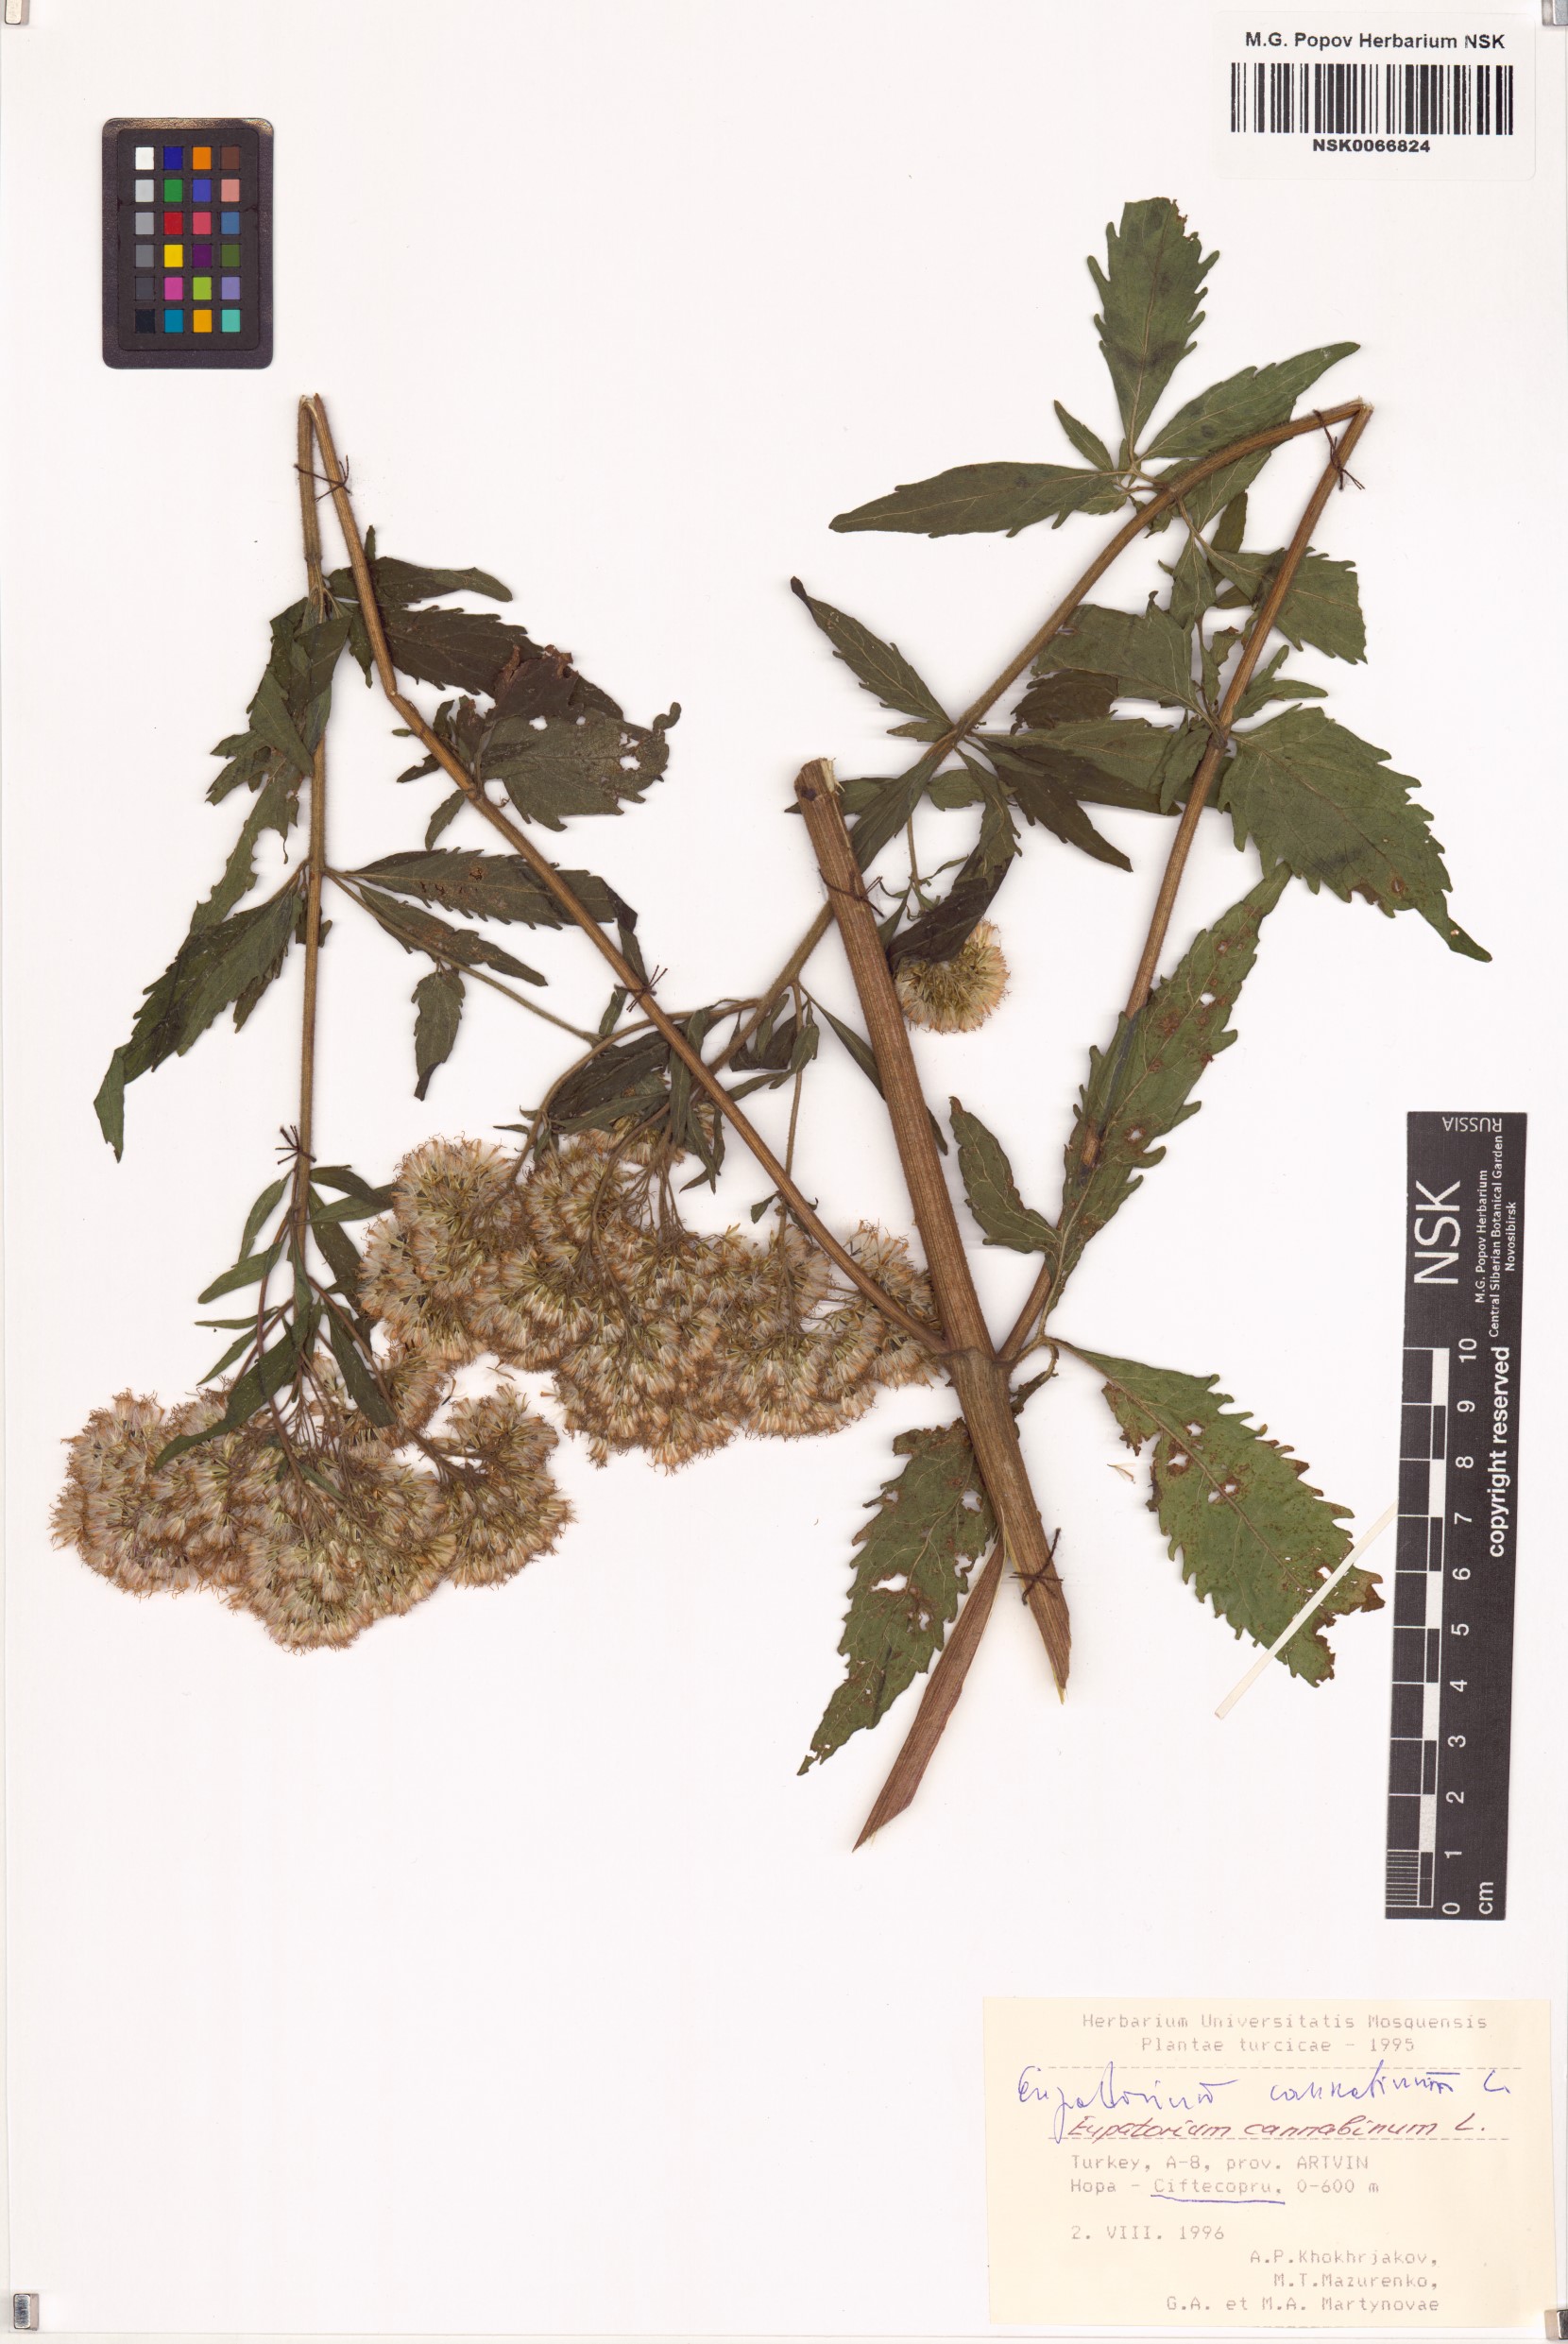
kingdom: Plantae
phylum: Tracheophyta
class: Magnoliopsida
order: Asterales
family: Asteraceae
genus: Eupatorium
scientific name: Eupatorium cannabinum
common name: Hemp-agrimony
